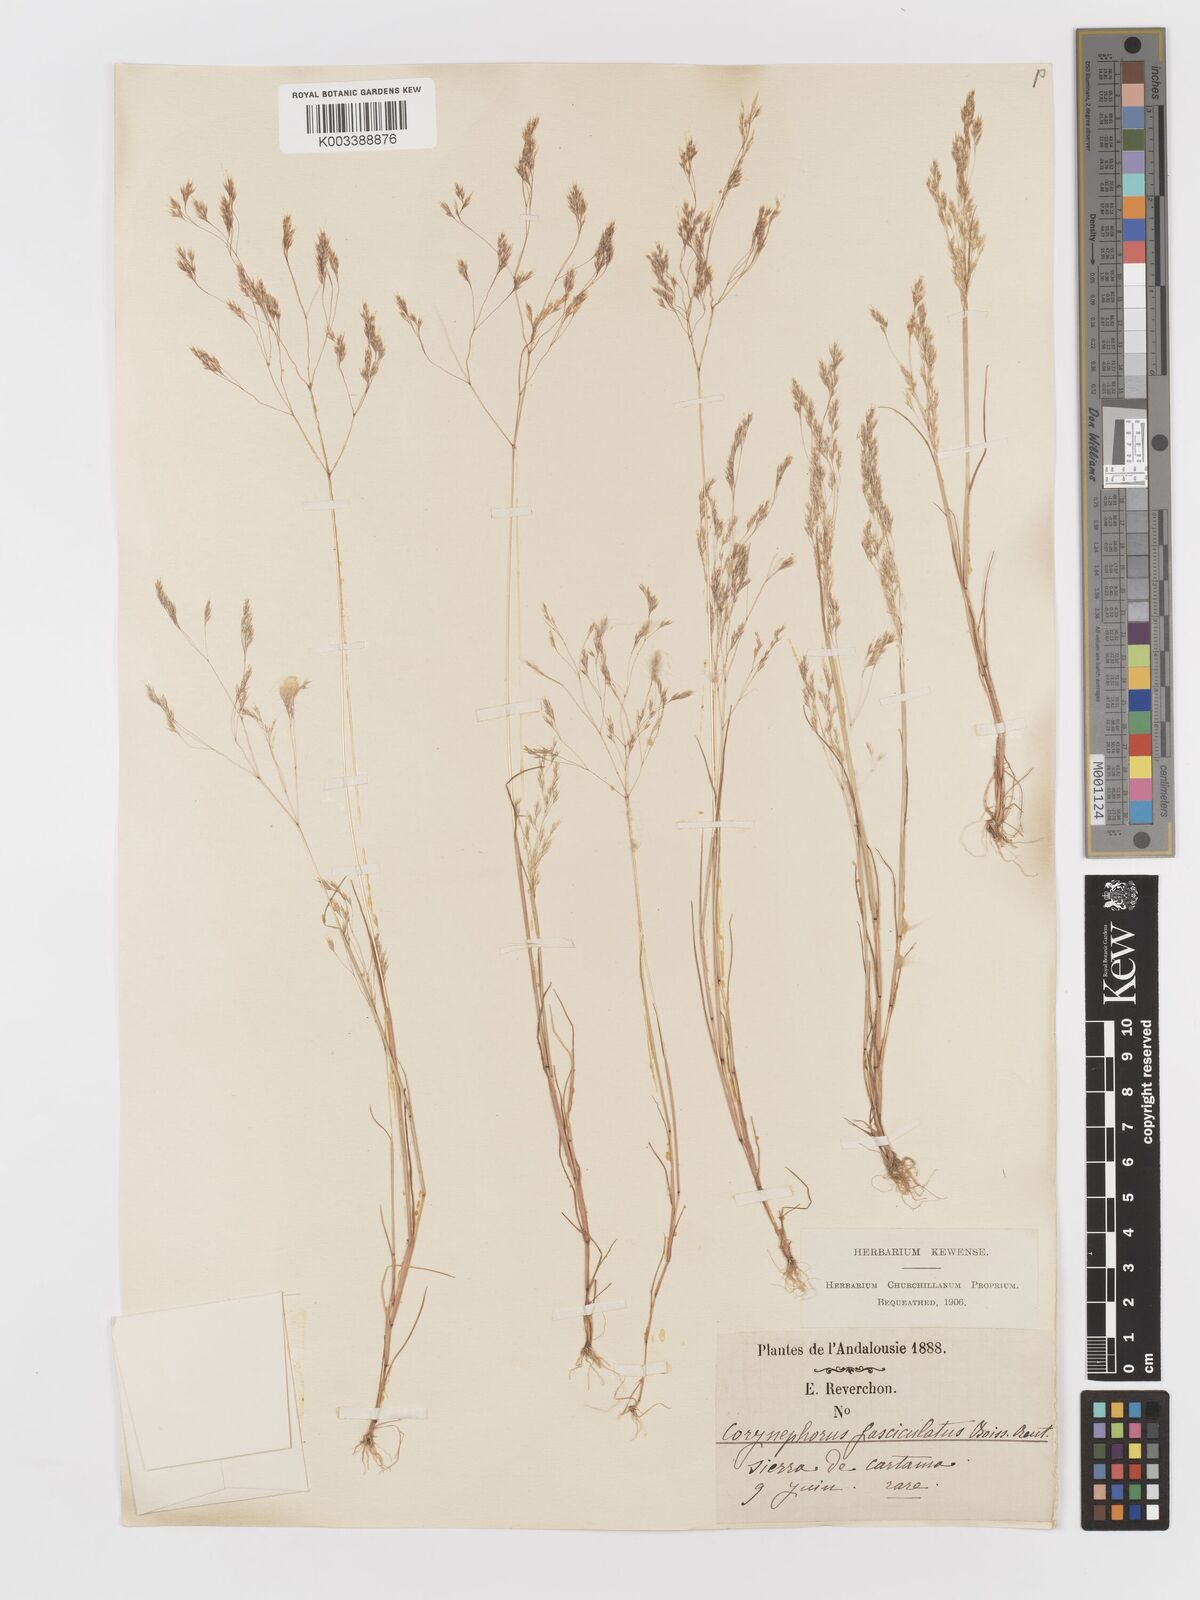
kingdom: Plantae
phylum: Tracheophyta
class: Liliopsida
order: Poales
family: Poaceae
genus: Corynephorus
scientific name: Corynephorus fasciculatus
